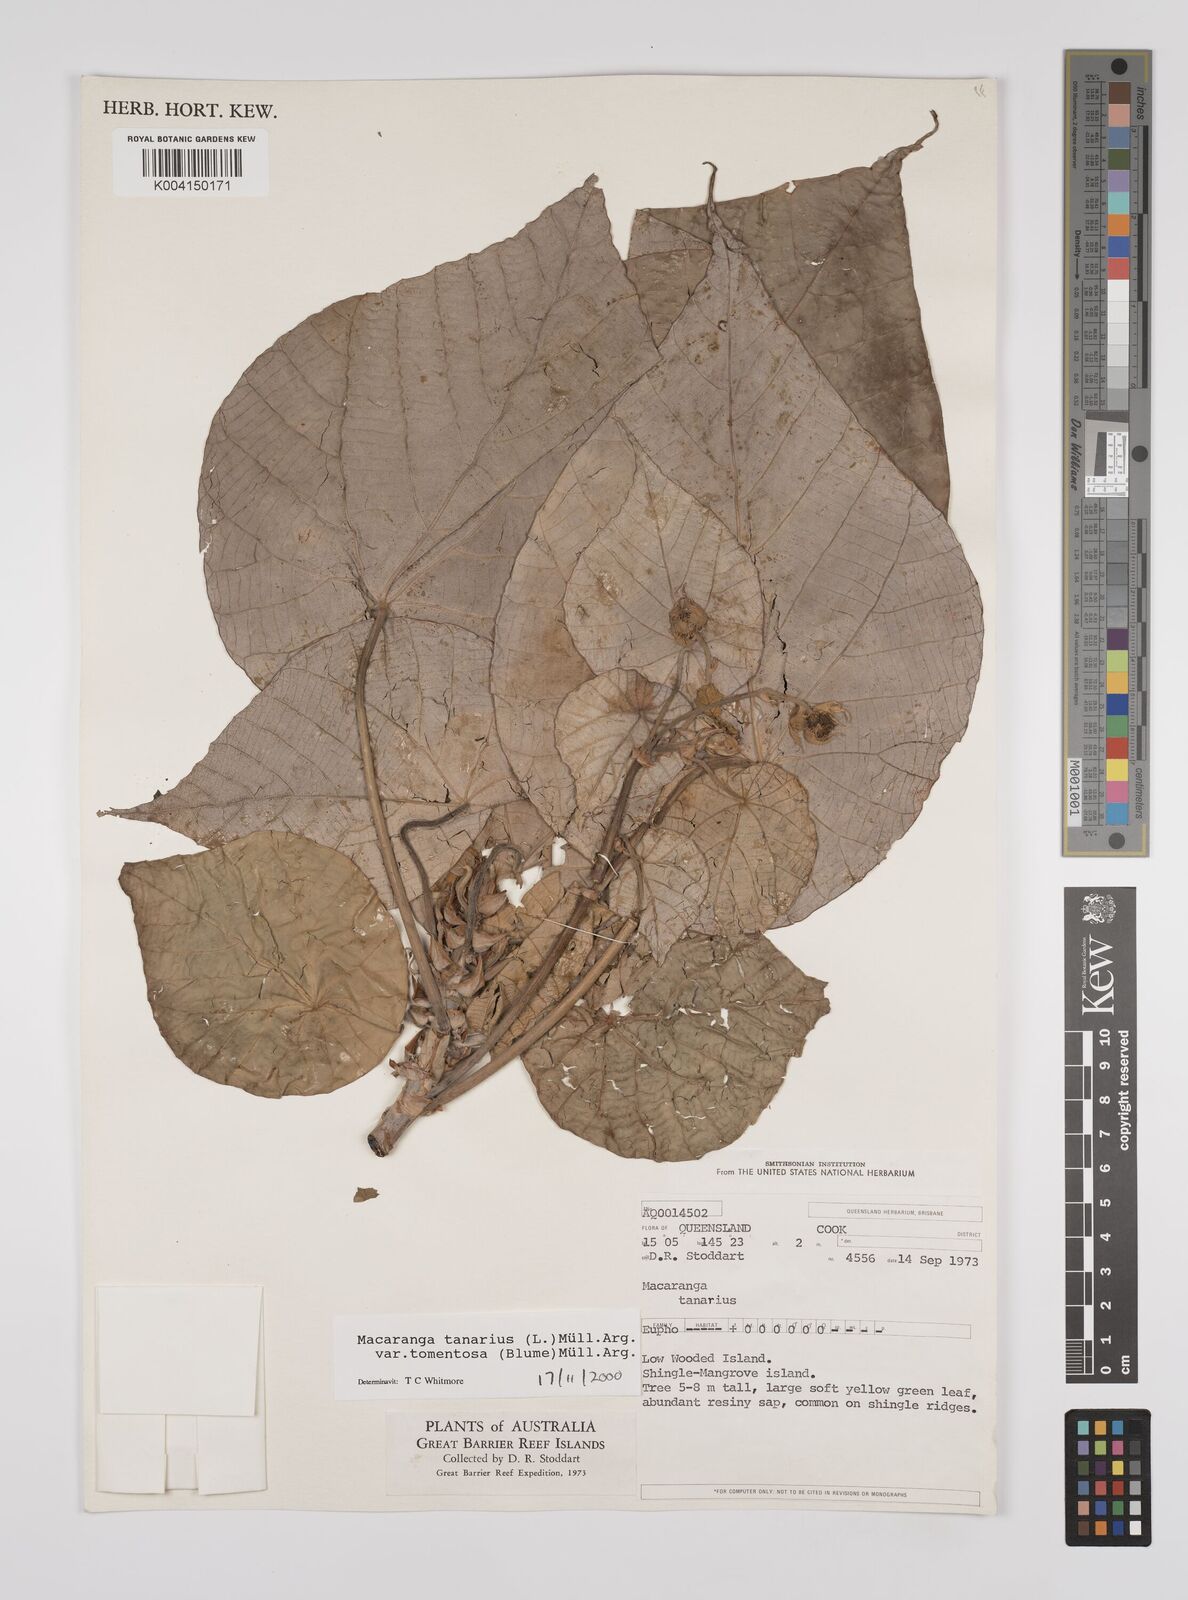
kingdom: Plantae
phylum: Tracheophyta
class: Magnoliopsida
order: Malpighiales
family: Euphorbiaceae
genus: Macaranga
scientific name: Macaranga tanarius
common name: Parasol leaf tree
